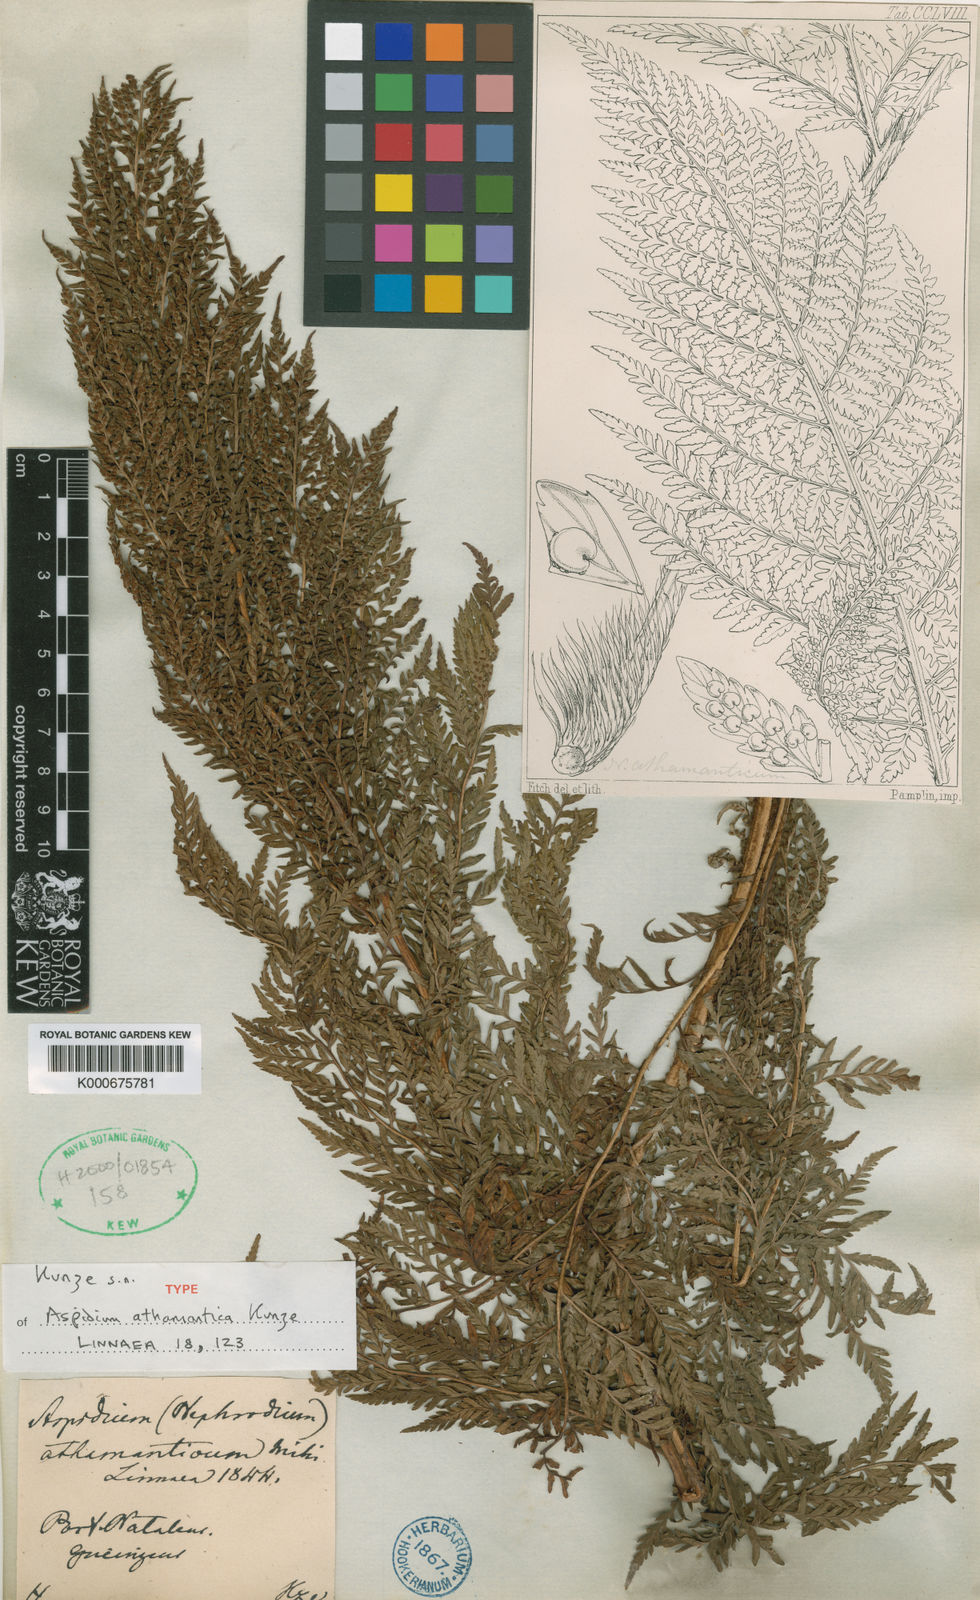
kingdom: Plantae
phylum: Tracheophyta
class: Polypodiopsida
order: Polypodiales
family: Dryopteridaceae
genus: Dryopteris
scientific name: Dryopteris athamantica
